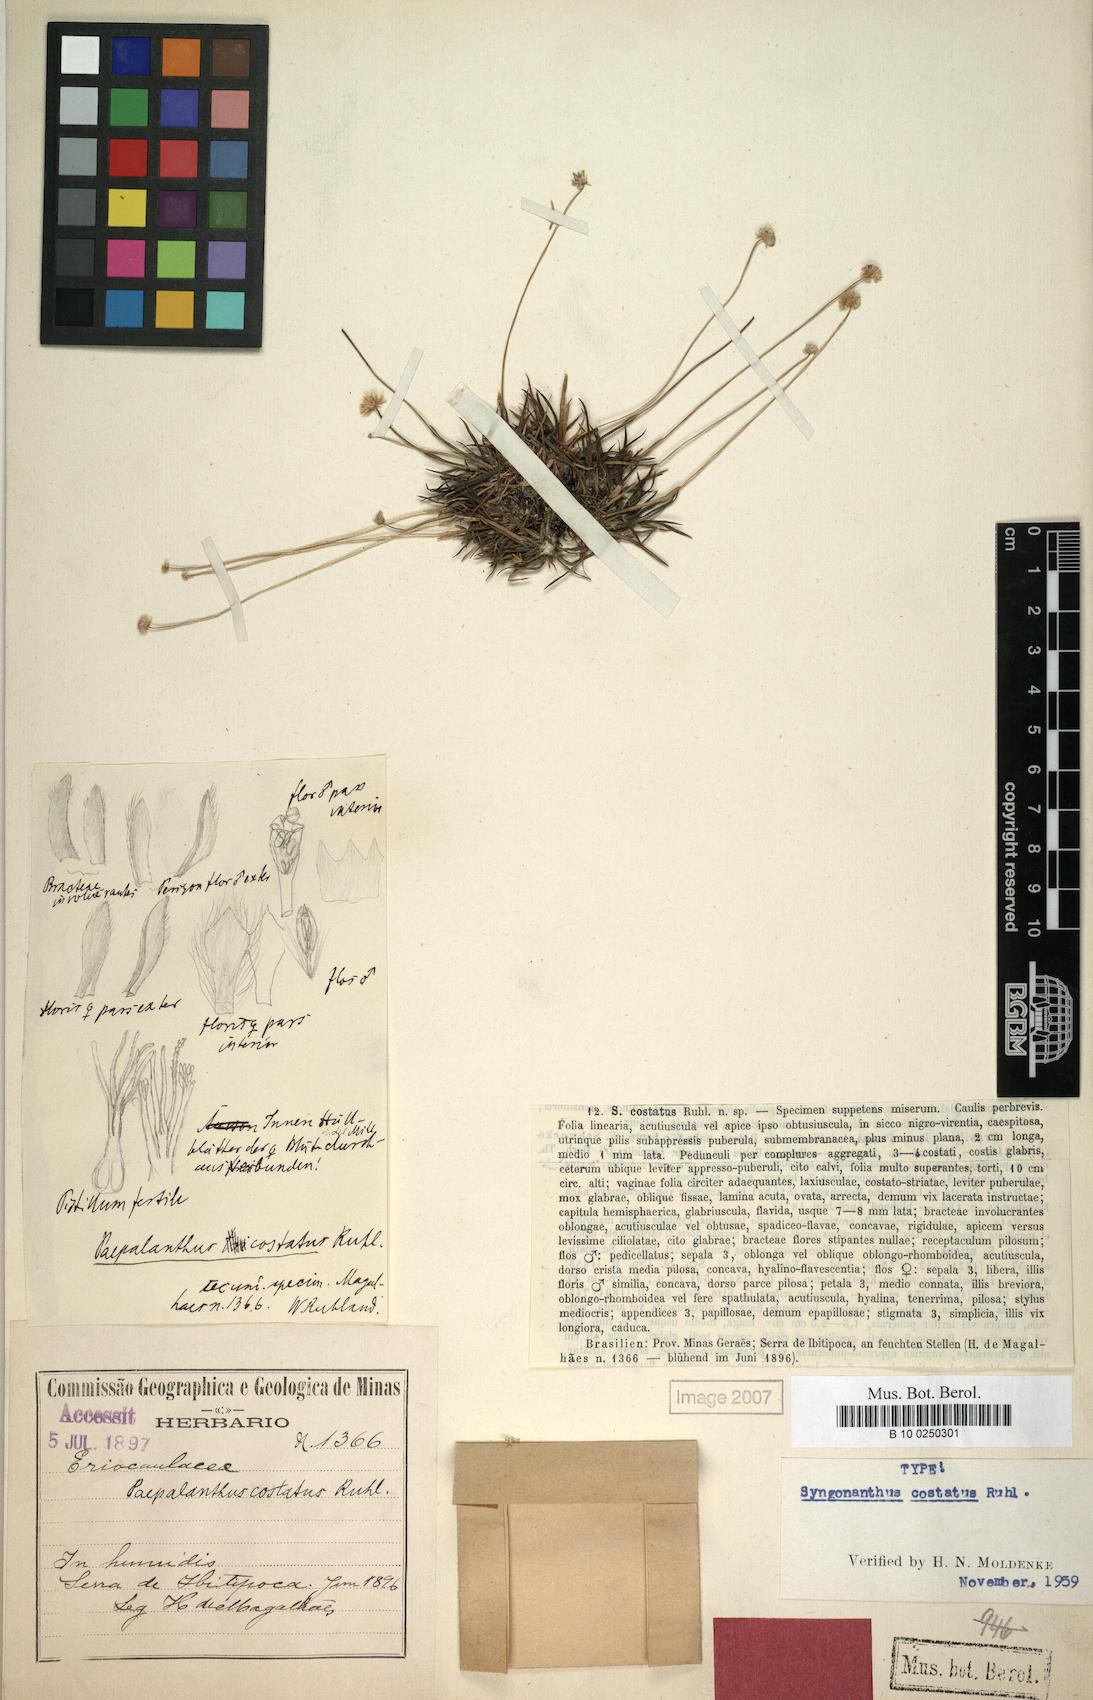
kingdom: Plantae
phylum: Tracheophyta
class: Liliopsida
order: Poales
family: Eriocaulaceae
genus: Syngonanthus
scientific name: Syngonanthus costatus
